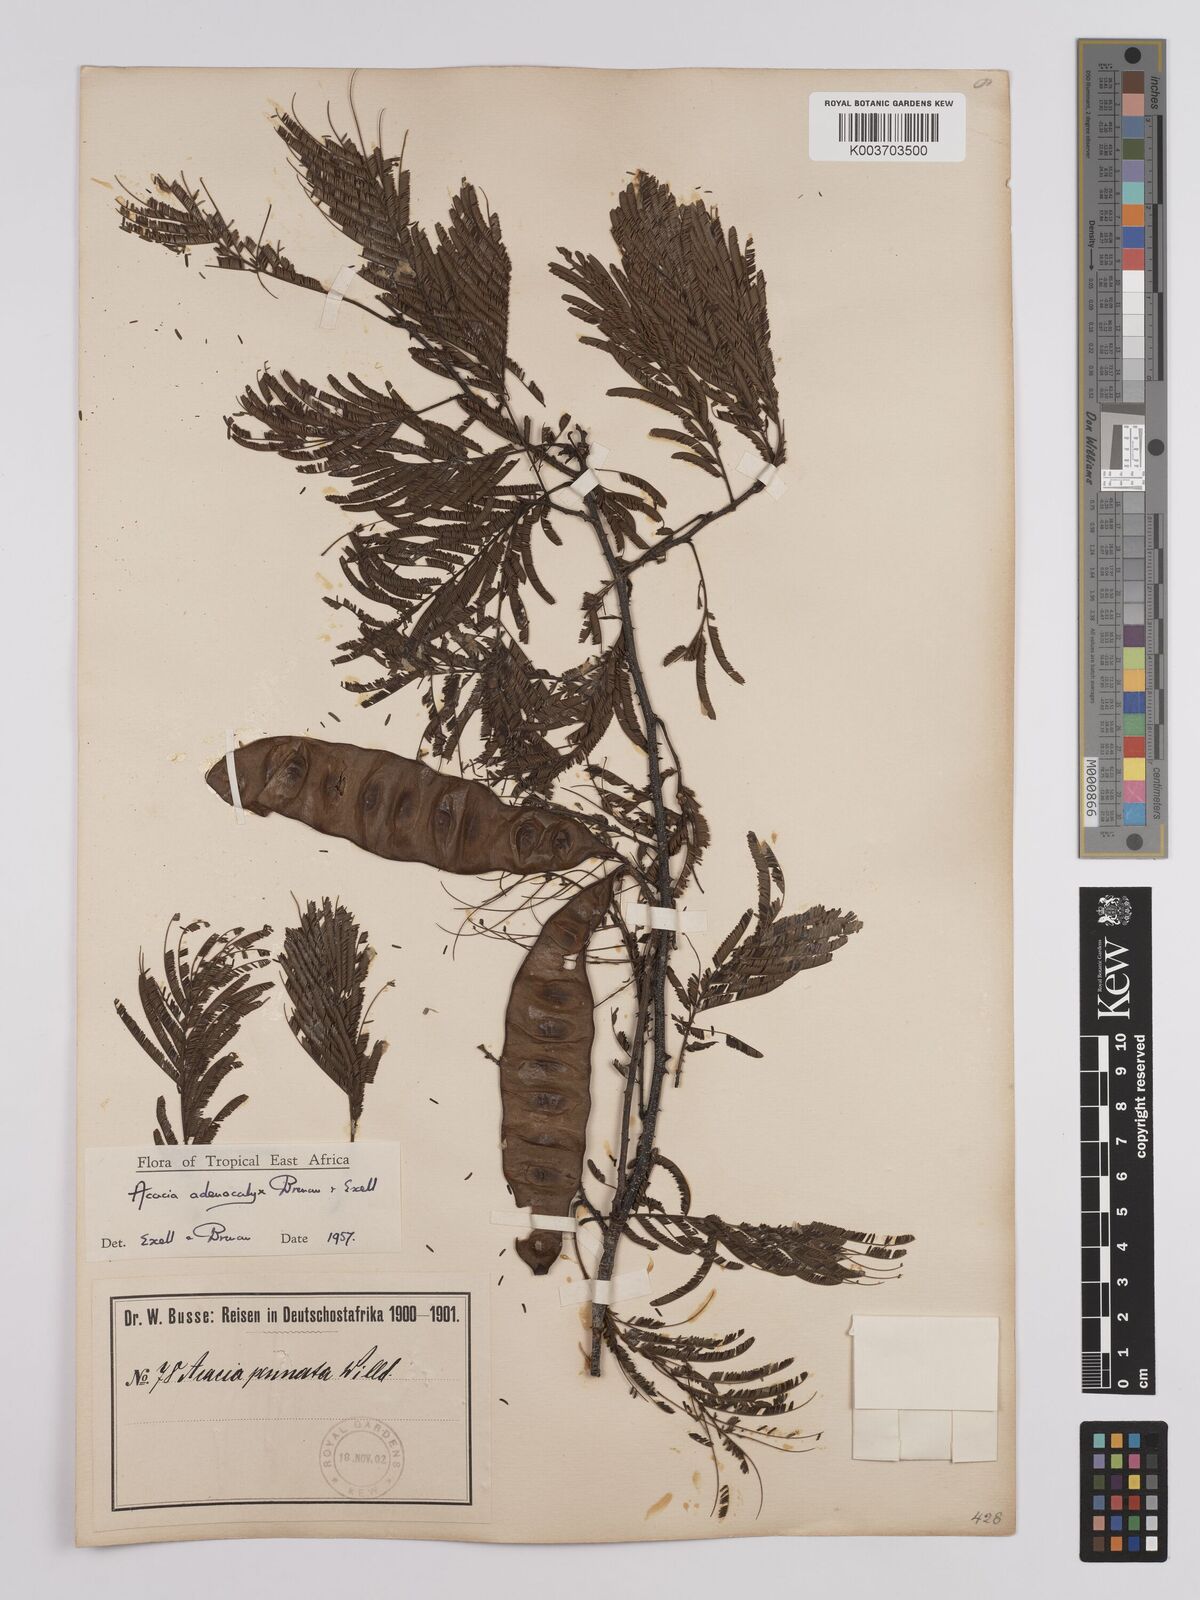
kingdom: Plantae
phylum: Tracheophyta
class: Magnoliopsida
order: Fabales
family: Fabaceae
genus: Senegalia
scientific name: Senegalia adenocalyx
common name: Pfurura
